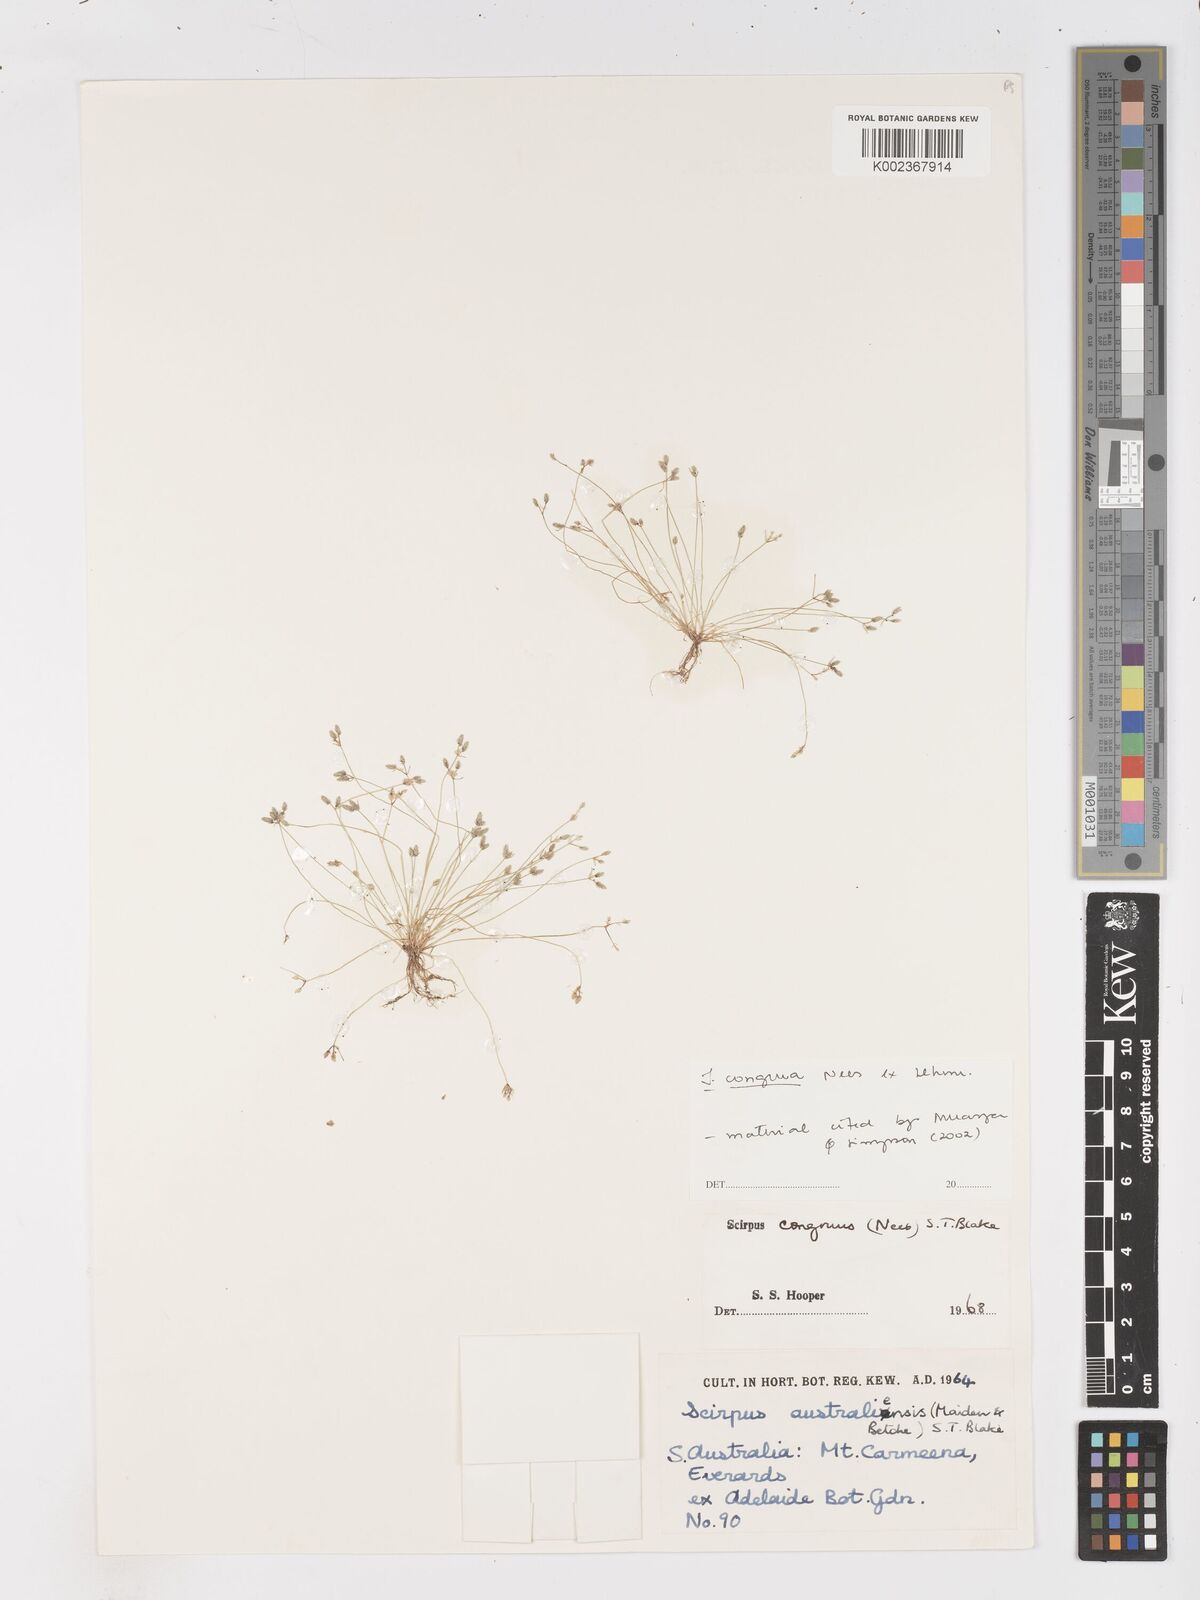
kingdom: Plantae
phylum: Tracheophyta
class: Liliopsida
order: Poales
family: Cyperaceae
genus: Isolepis
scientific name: Isolepis congrua
